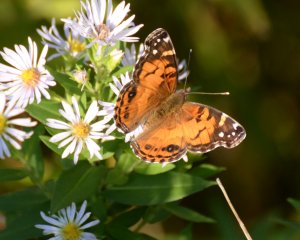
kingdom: Animalia
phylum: Arthropoda
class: Insecta
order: Lepidoptera
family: Nymphalidae
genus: Vanessa
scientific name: Vanessa virginiensis
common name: American Lady
